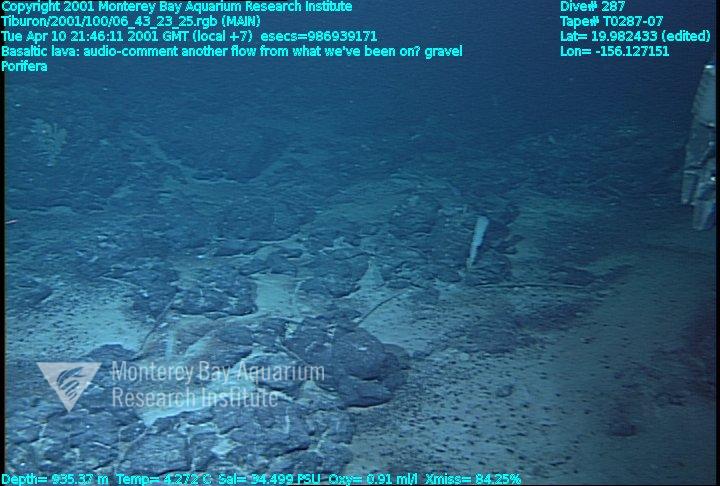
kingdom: Animalia
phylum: Porifera
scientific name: Porifera
